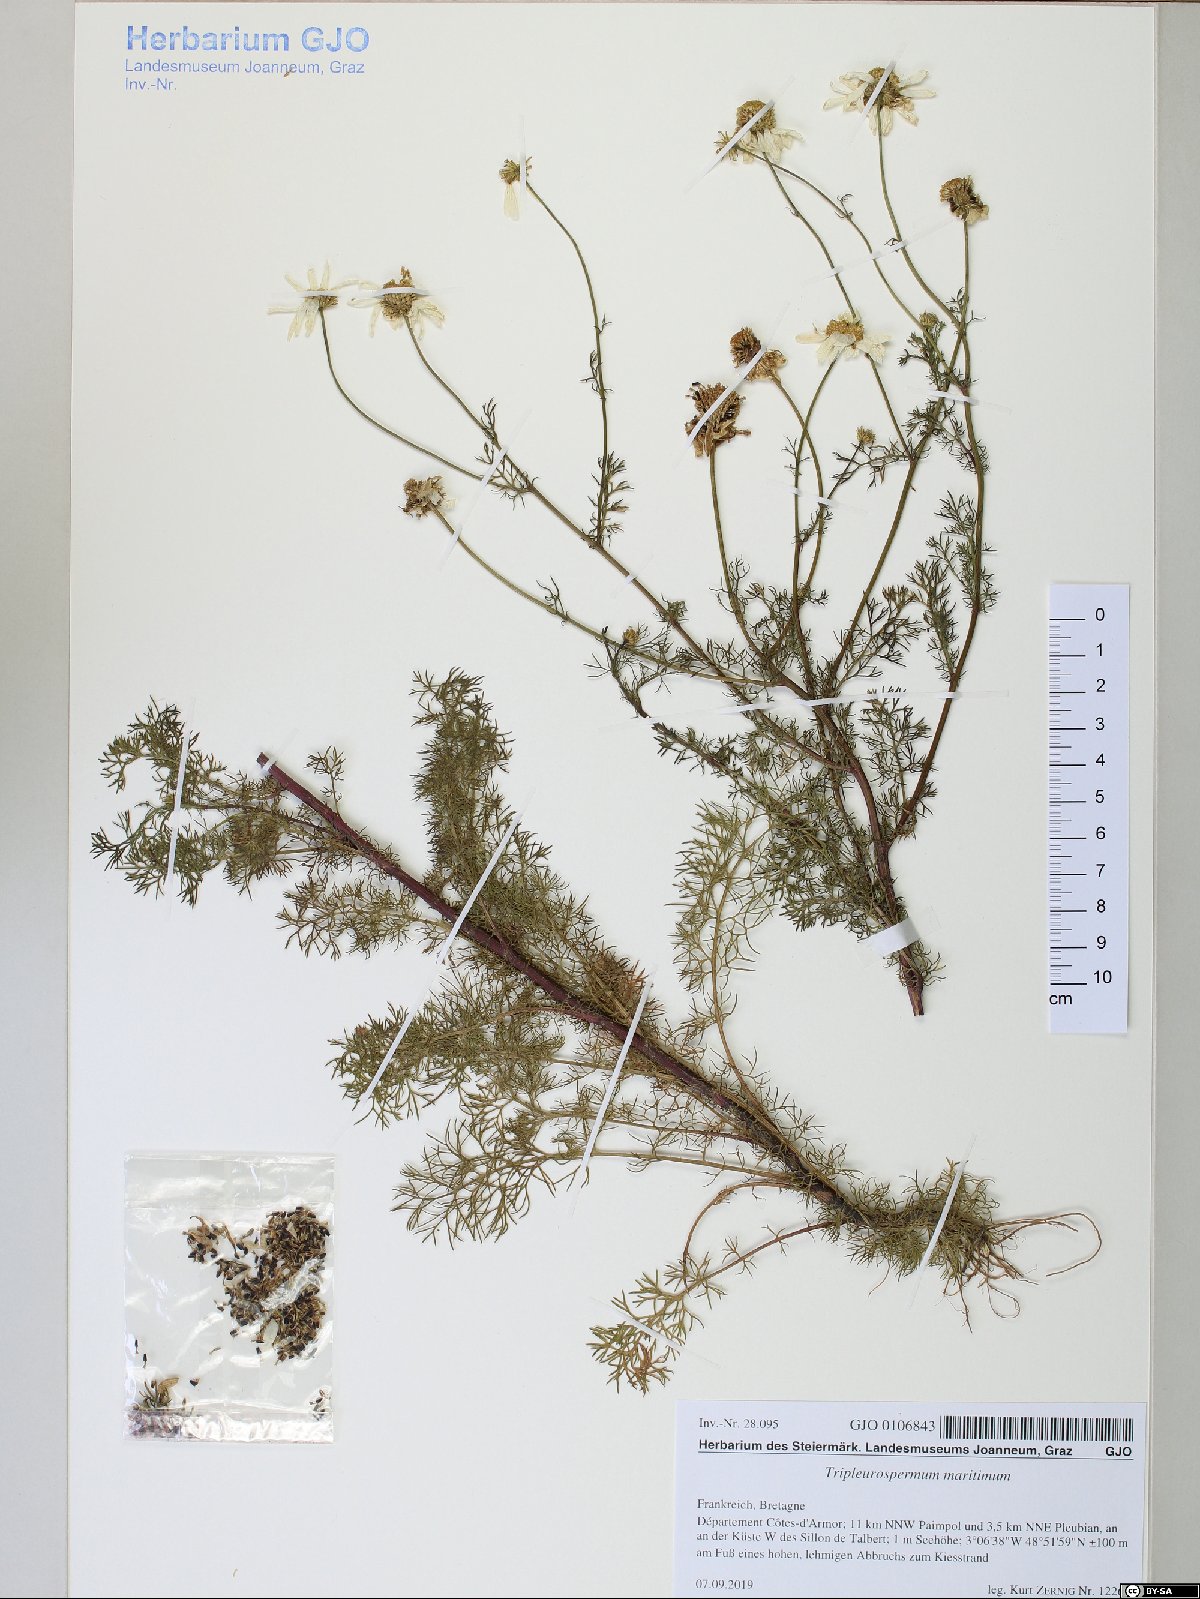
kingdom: Plantae
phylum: Tracheophyta
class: Magnoliopsida
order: Asterales
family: Asteraceae
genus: Tripleurospermum
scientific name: Tripleurospermum maritimum
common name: Sea mayweed
